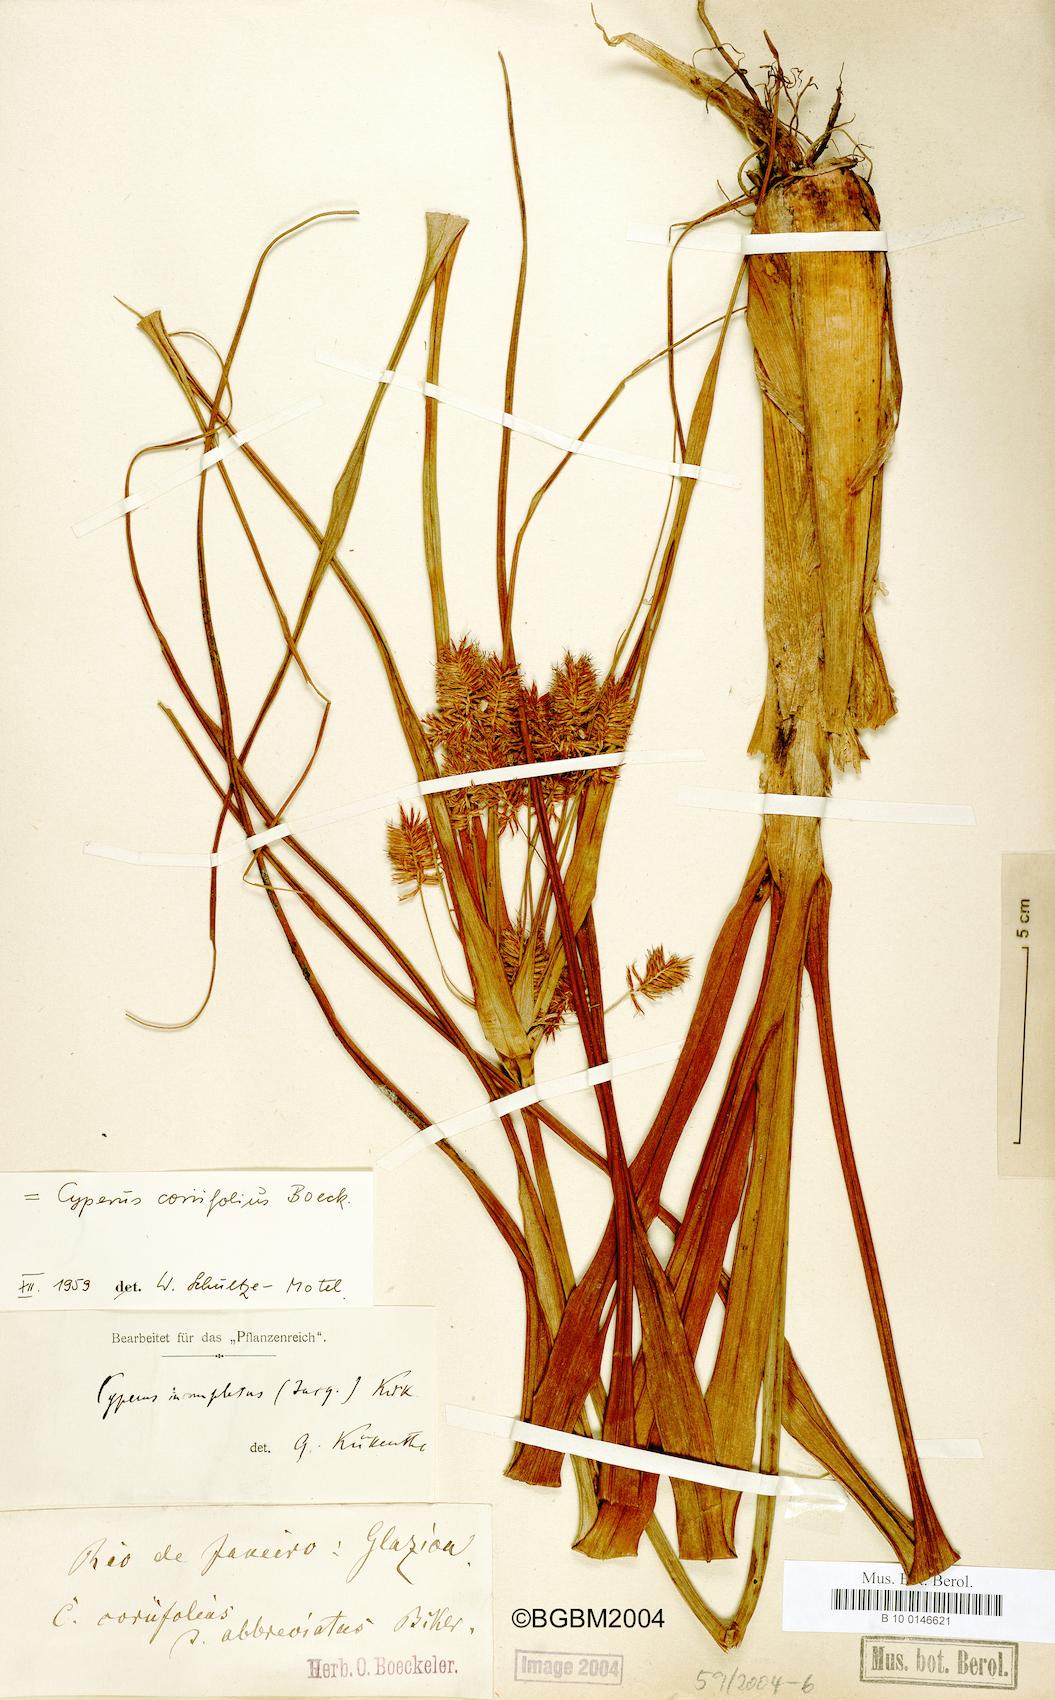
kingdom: Plantae
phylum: Tracheophyta
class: Liliopsida
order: Poales
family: Cyperaceae
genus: Cyperus
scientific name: Cyperus coriifolius
